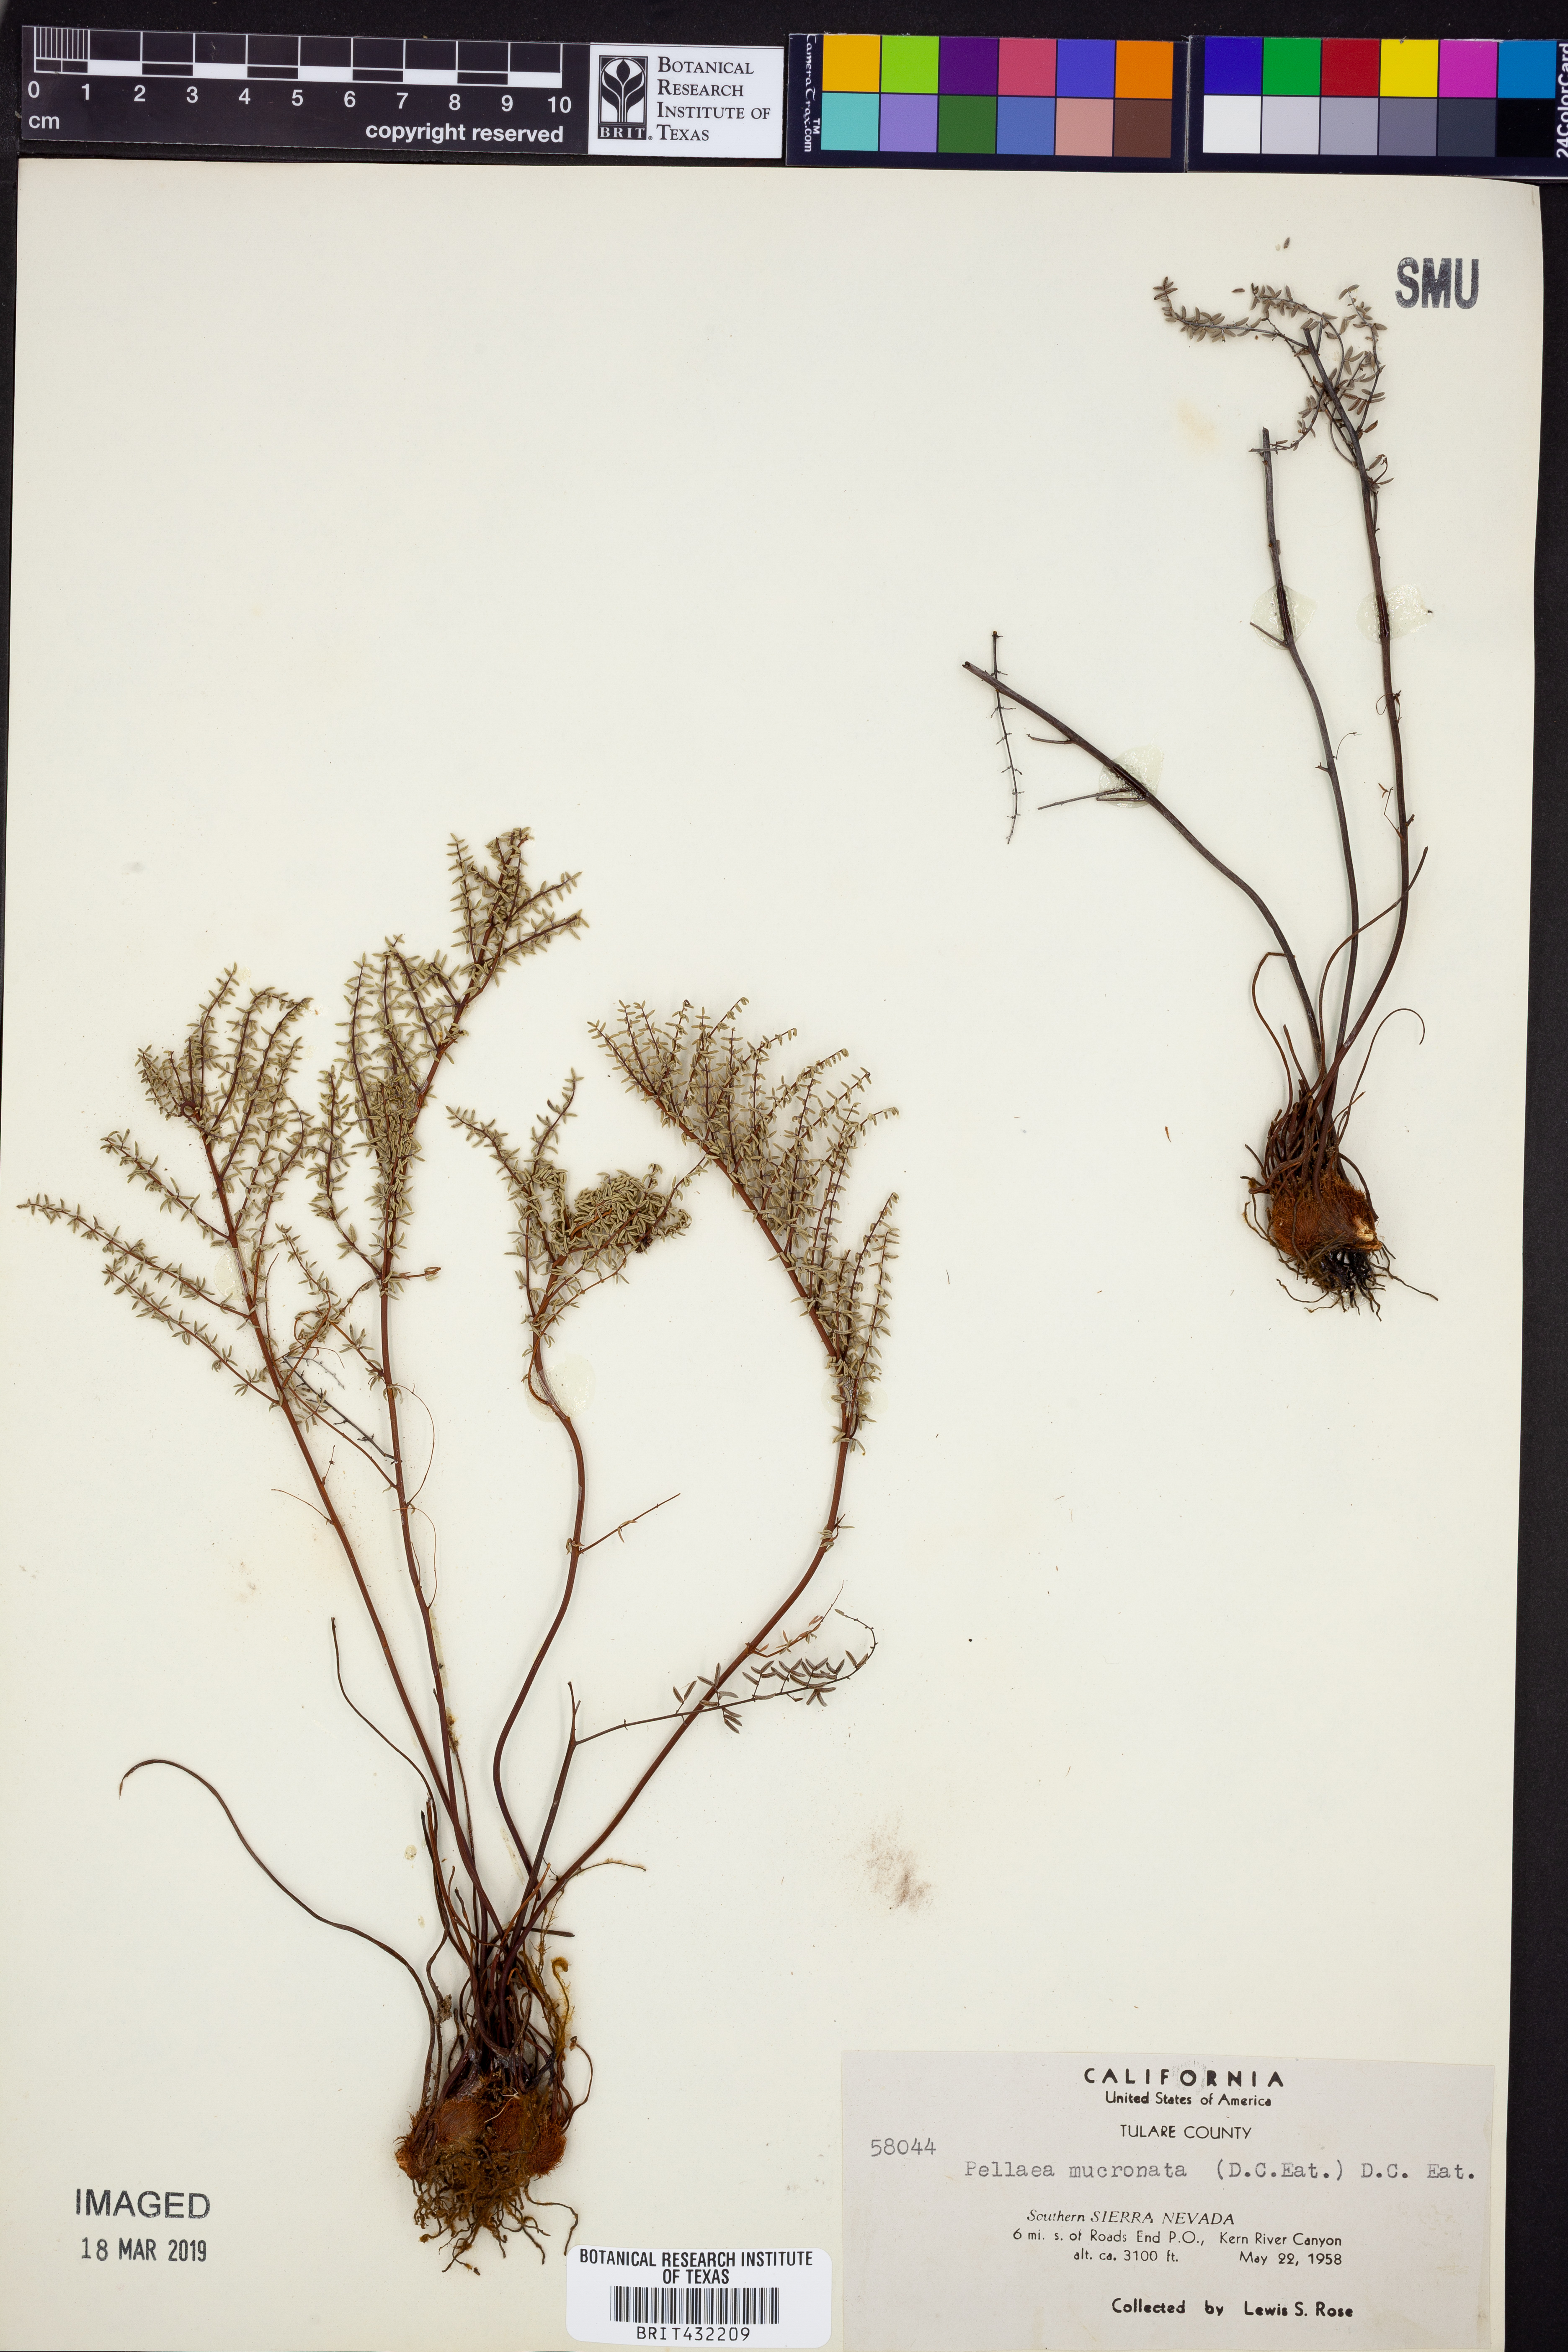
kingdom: Plantae
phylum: Tracheophyta
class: Polypodiopsida
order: Polypodiales
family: Pteridaceae
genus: Pellaea
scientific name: Pellaea atropurpurea
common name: Hairy cliffbrake
